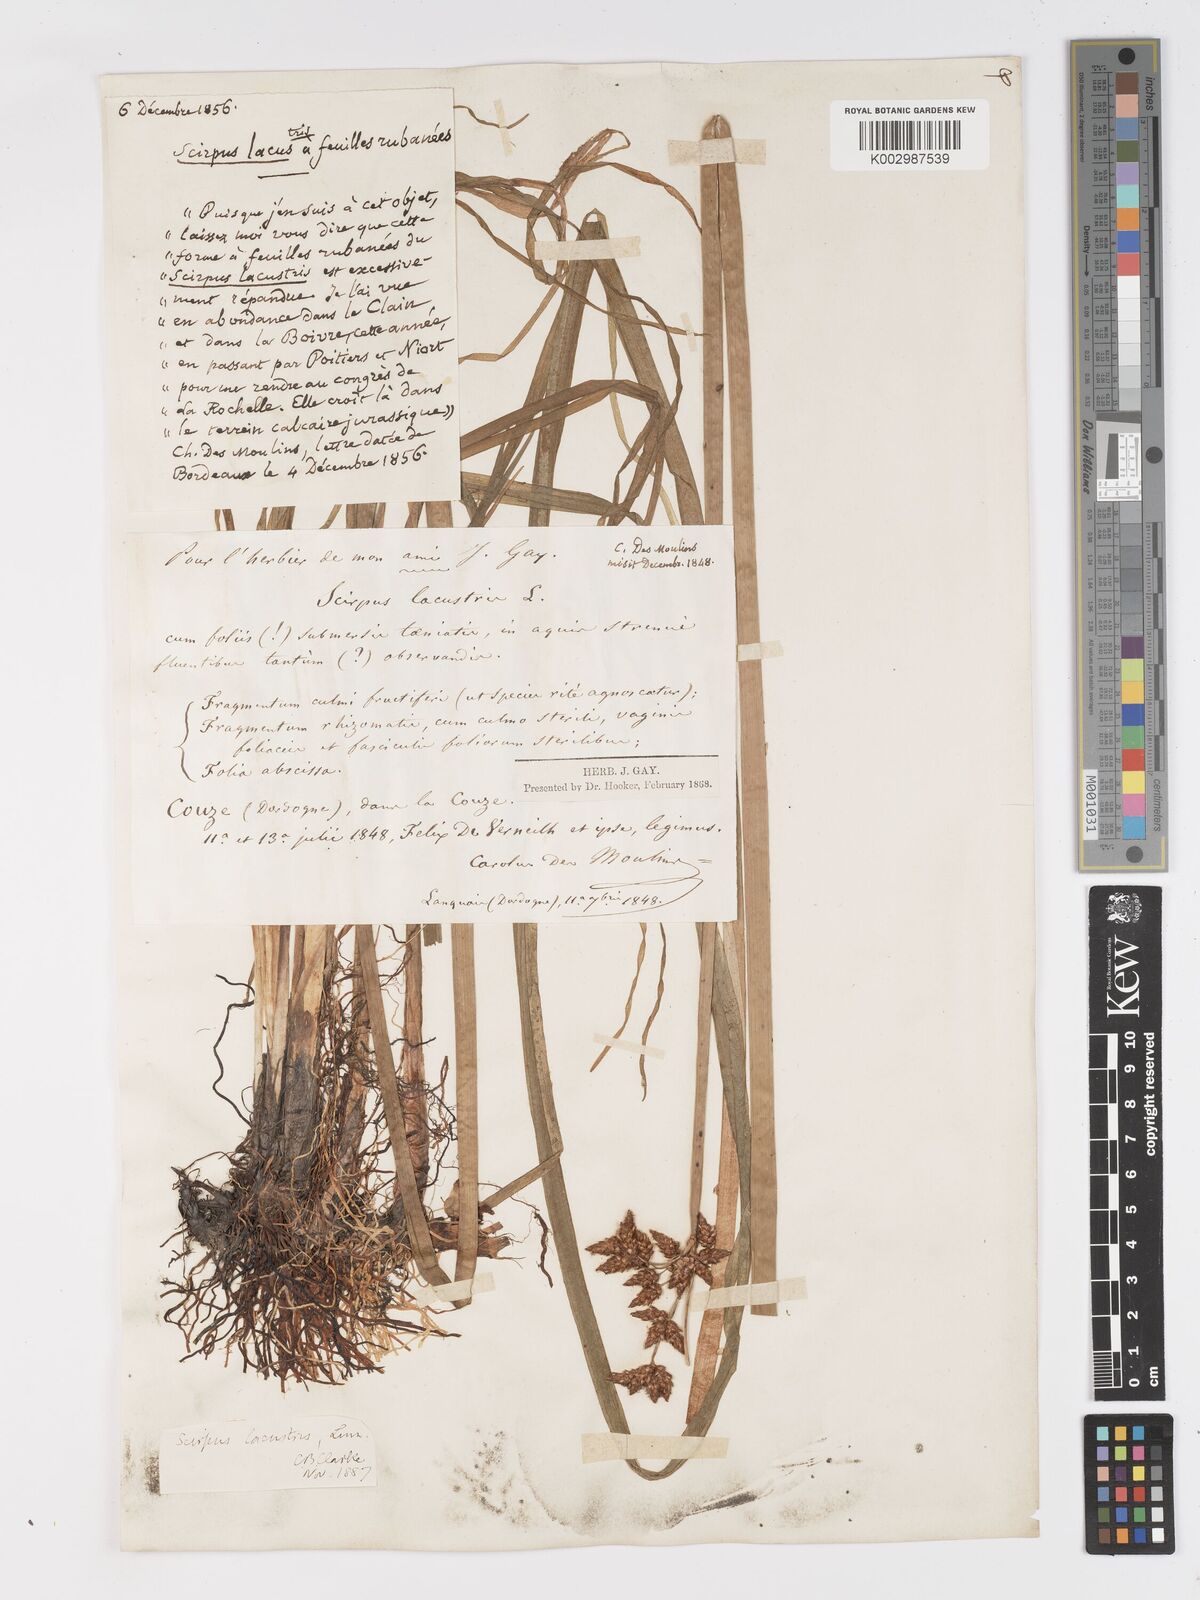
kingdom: Plantae
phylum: Tracheophyta
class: Liliopsida
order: Poales
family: Cyperaceae
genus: Schoenoplectus
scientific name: Schoenoplectus lacustris
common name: Common club-rush
